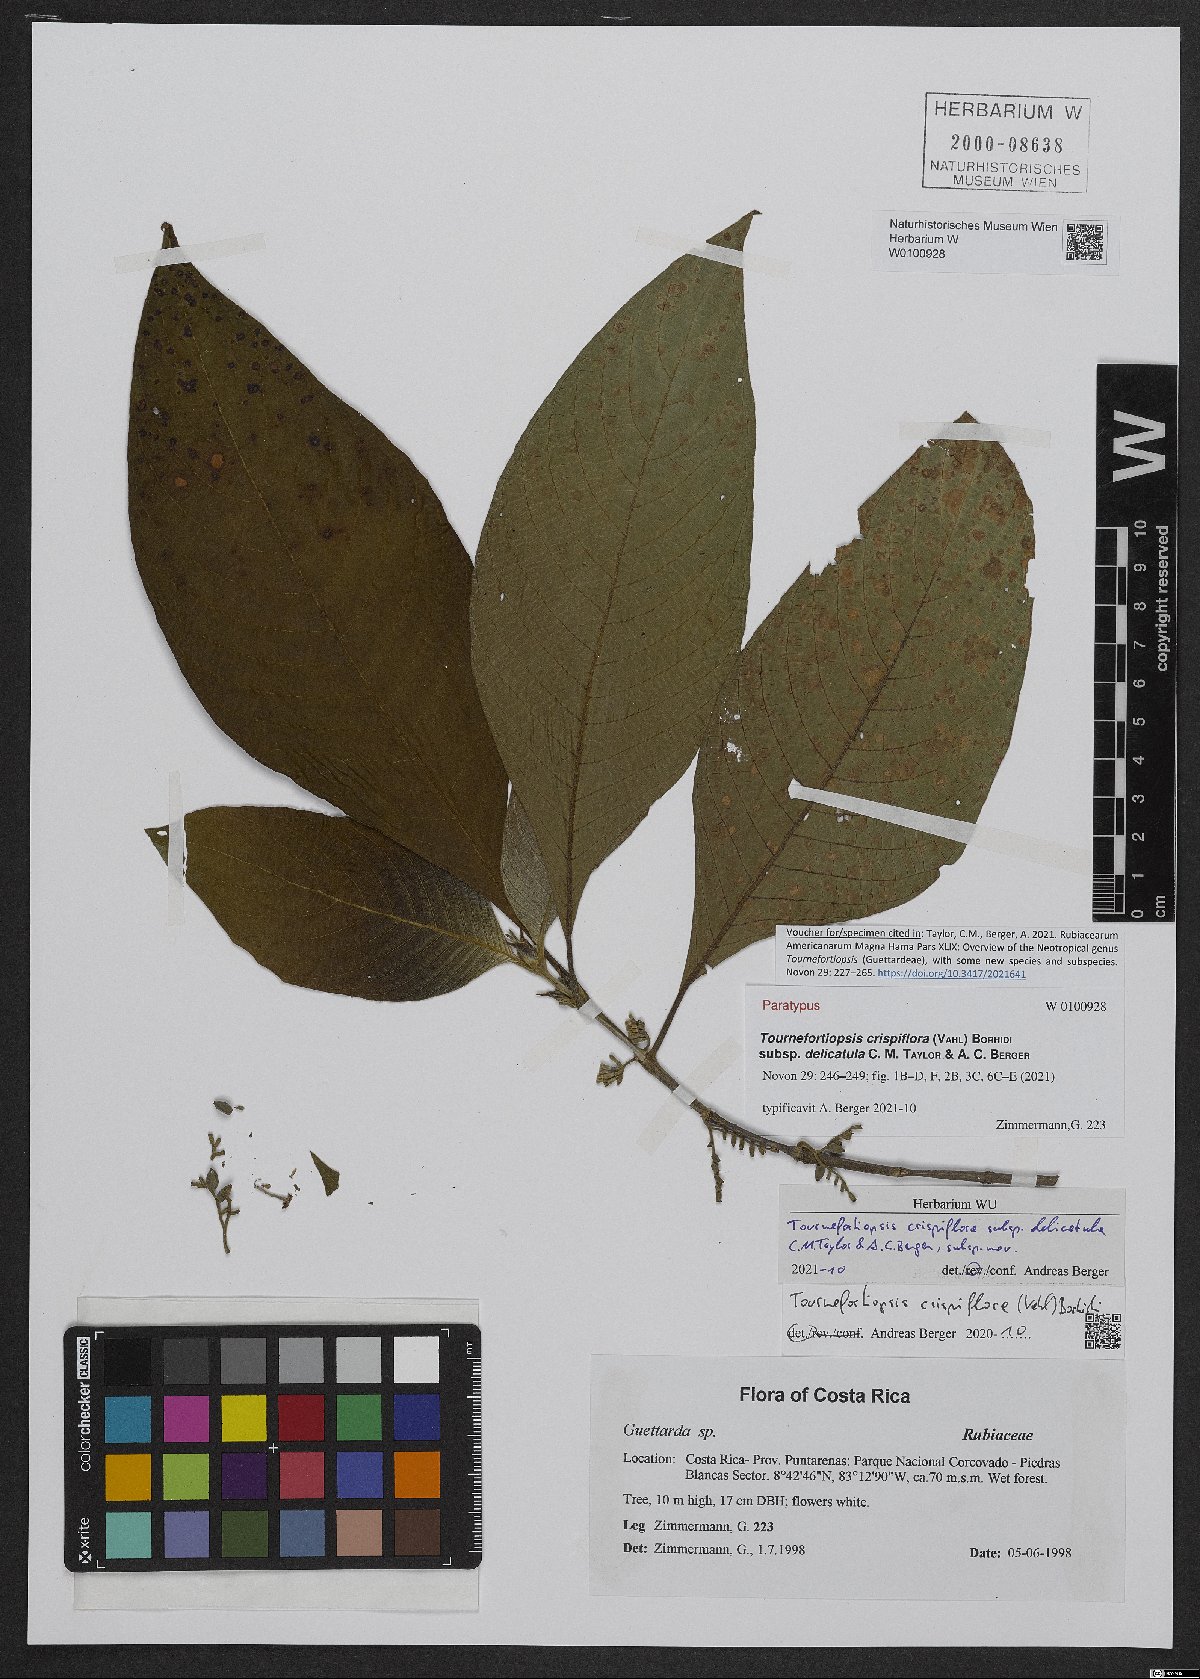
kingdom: Plantae
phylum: Tracheophyta
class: Magnoliopsida
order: Gentianales
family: Rubiaceae
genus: Tournefortiopsis
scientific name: Tournefortiopsis crispiflora
